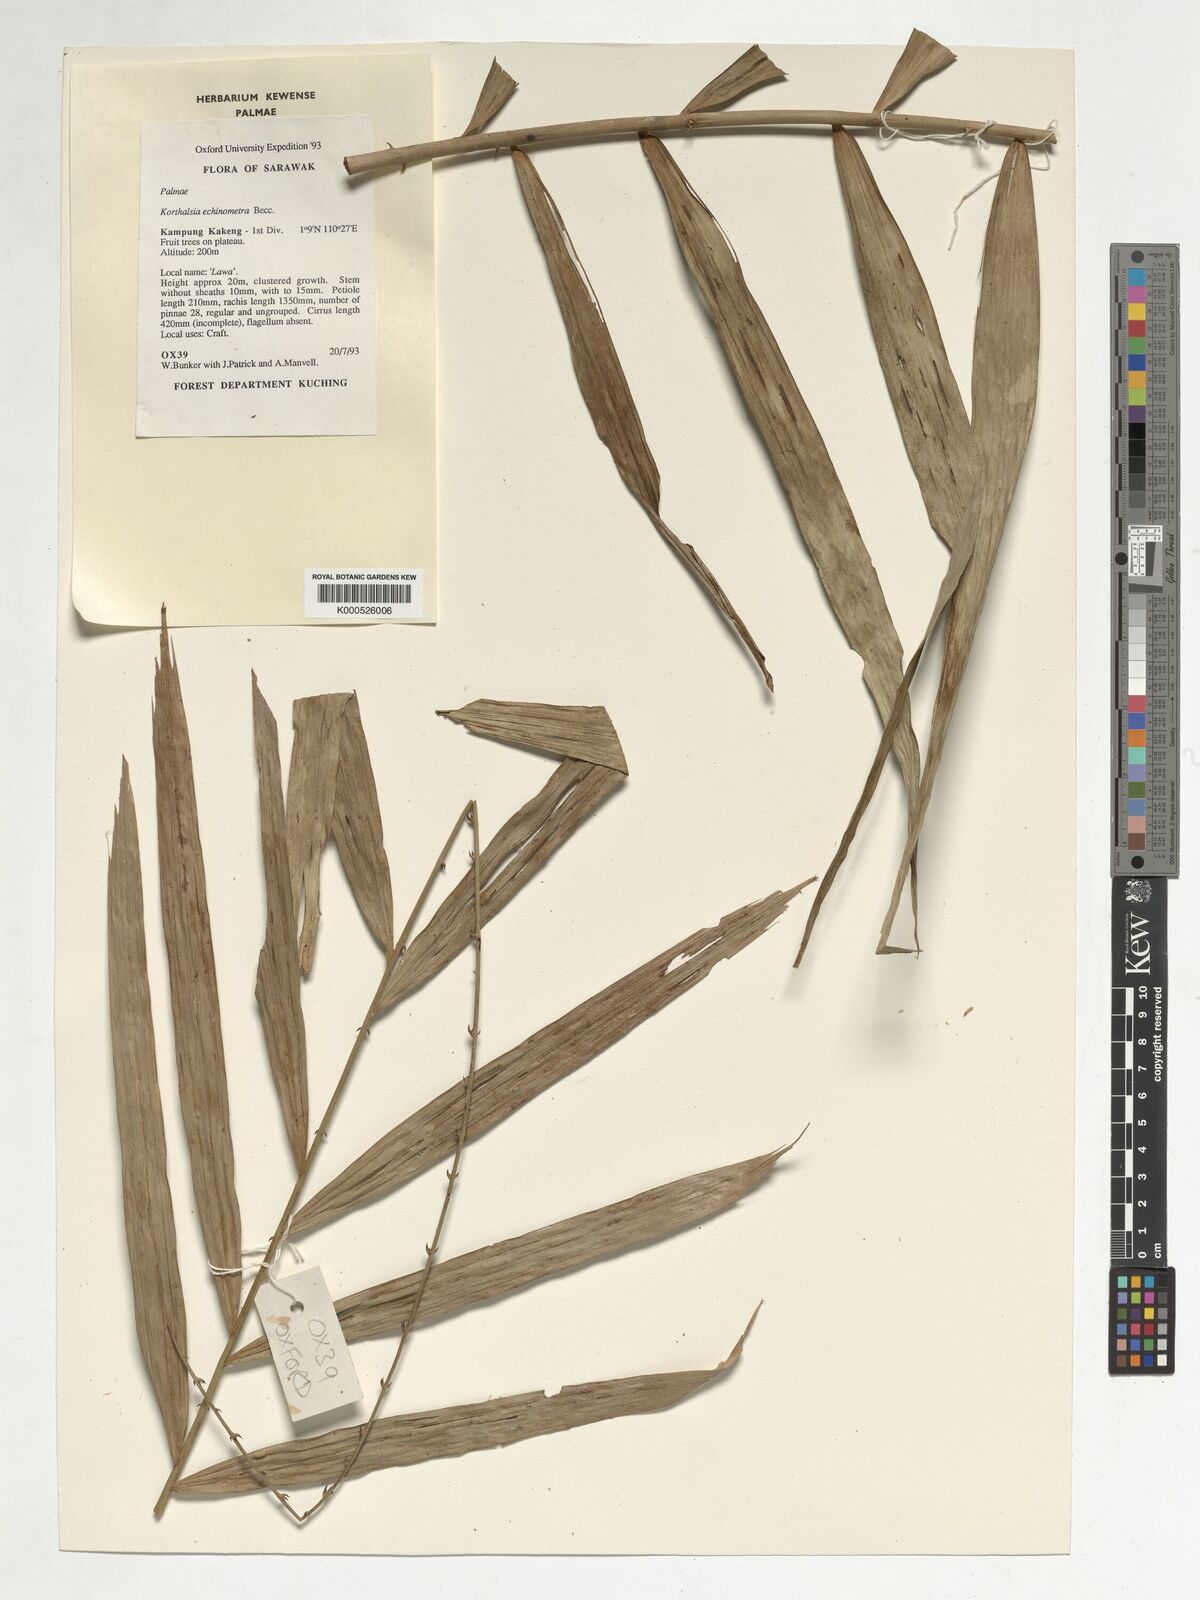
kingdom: Plantae
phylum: Tracheophyta
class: Liliopsida
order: Arecales
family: Arecaceae
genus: Korthalsia
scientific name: Korthalsia echinometra
